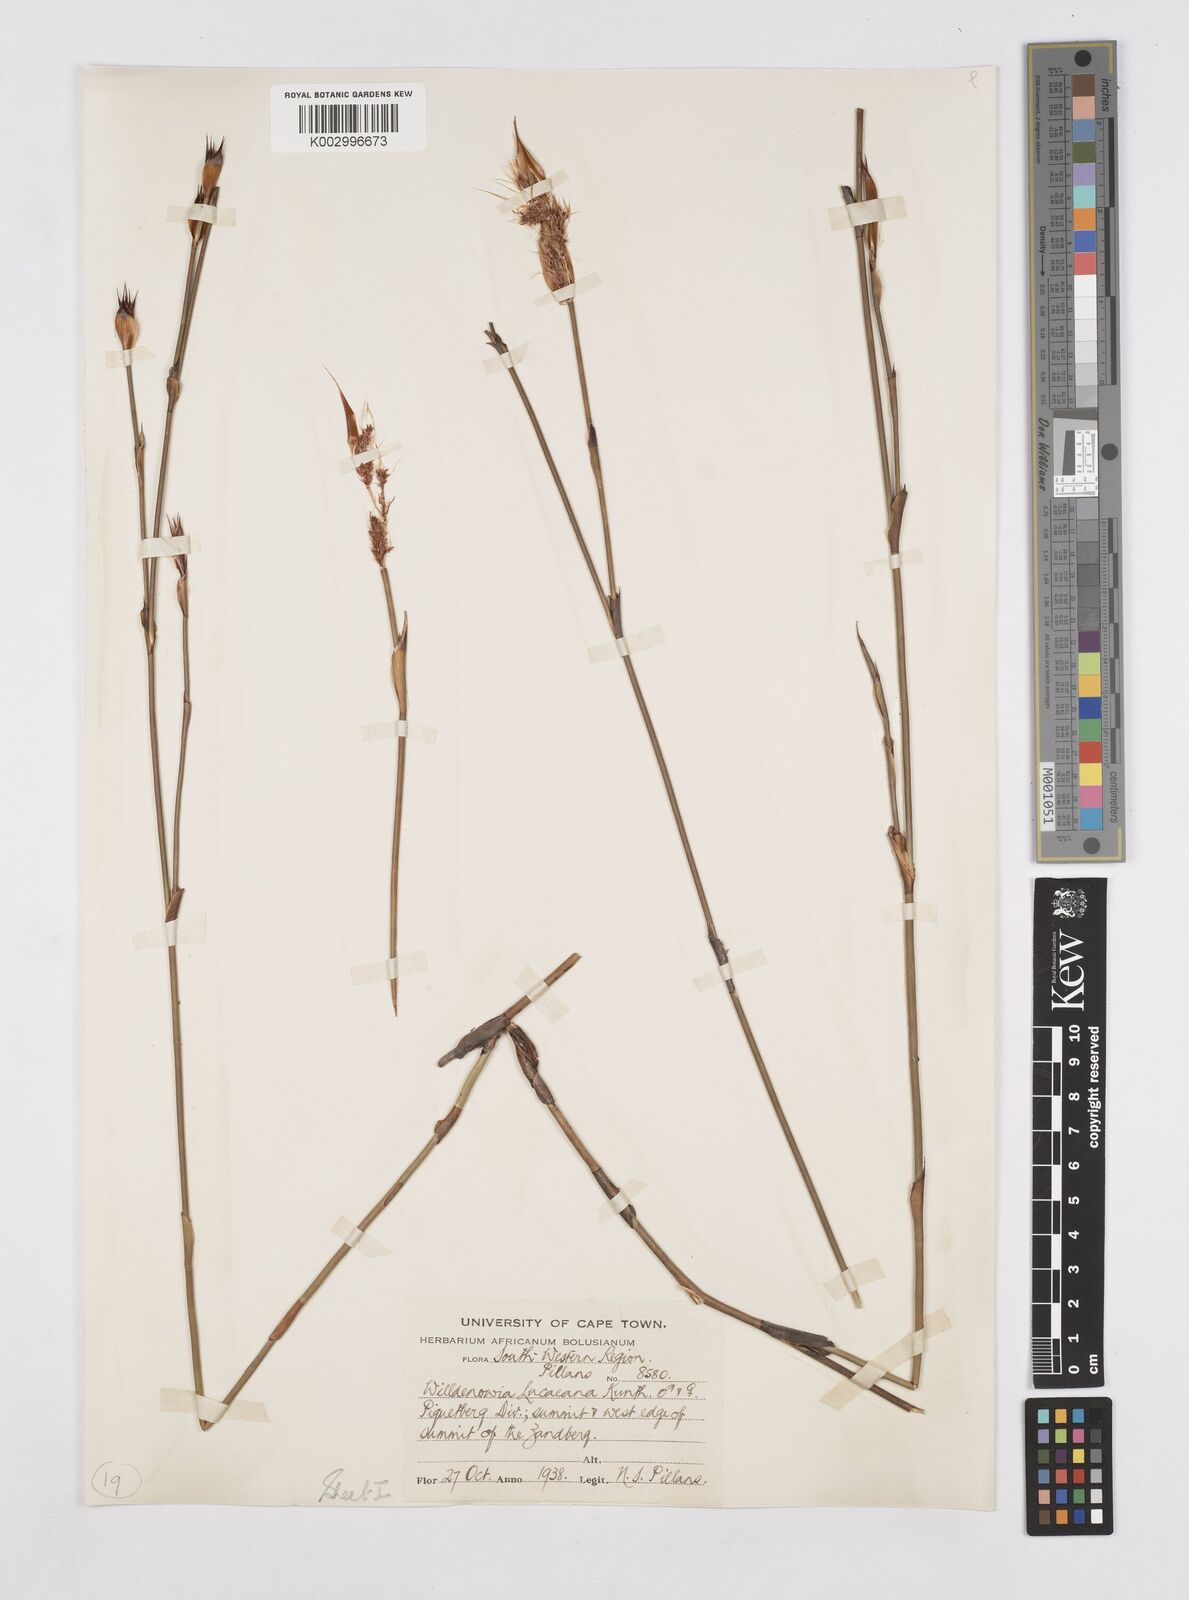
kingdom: Plantae
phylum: Tracheophyta
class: Liliopsida
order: Poales
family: Restionaceae
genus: Willdenowia
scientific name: Willdenowia glomerata
